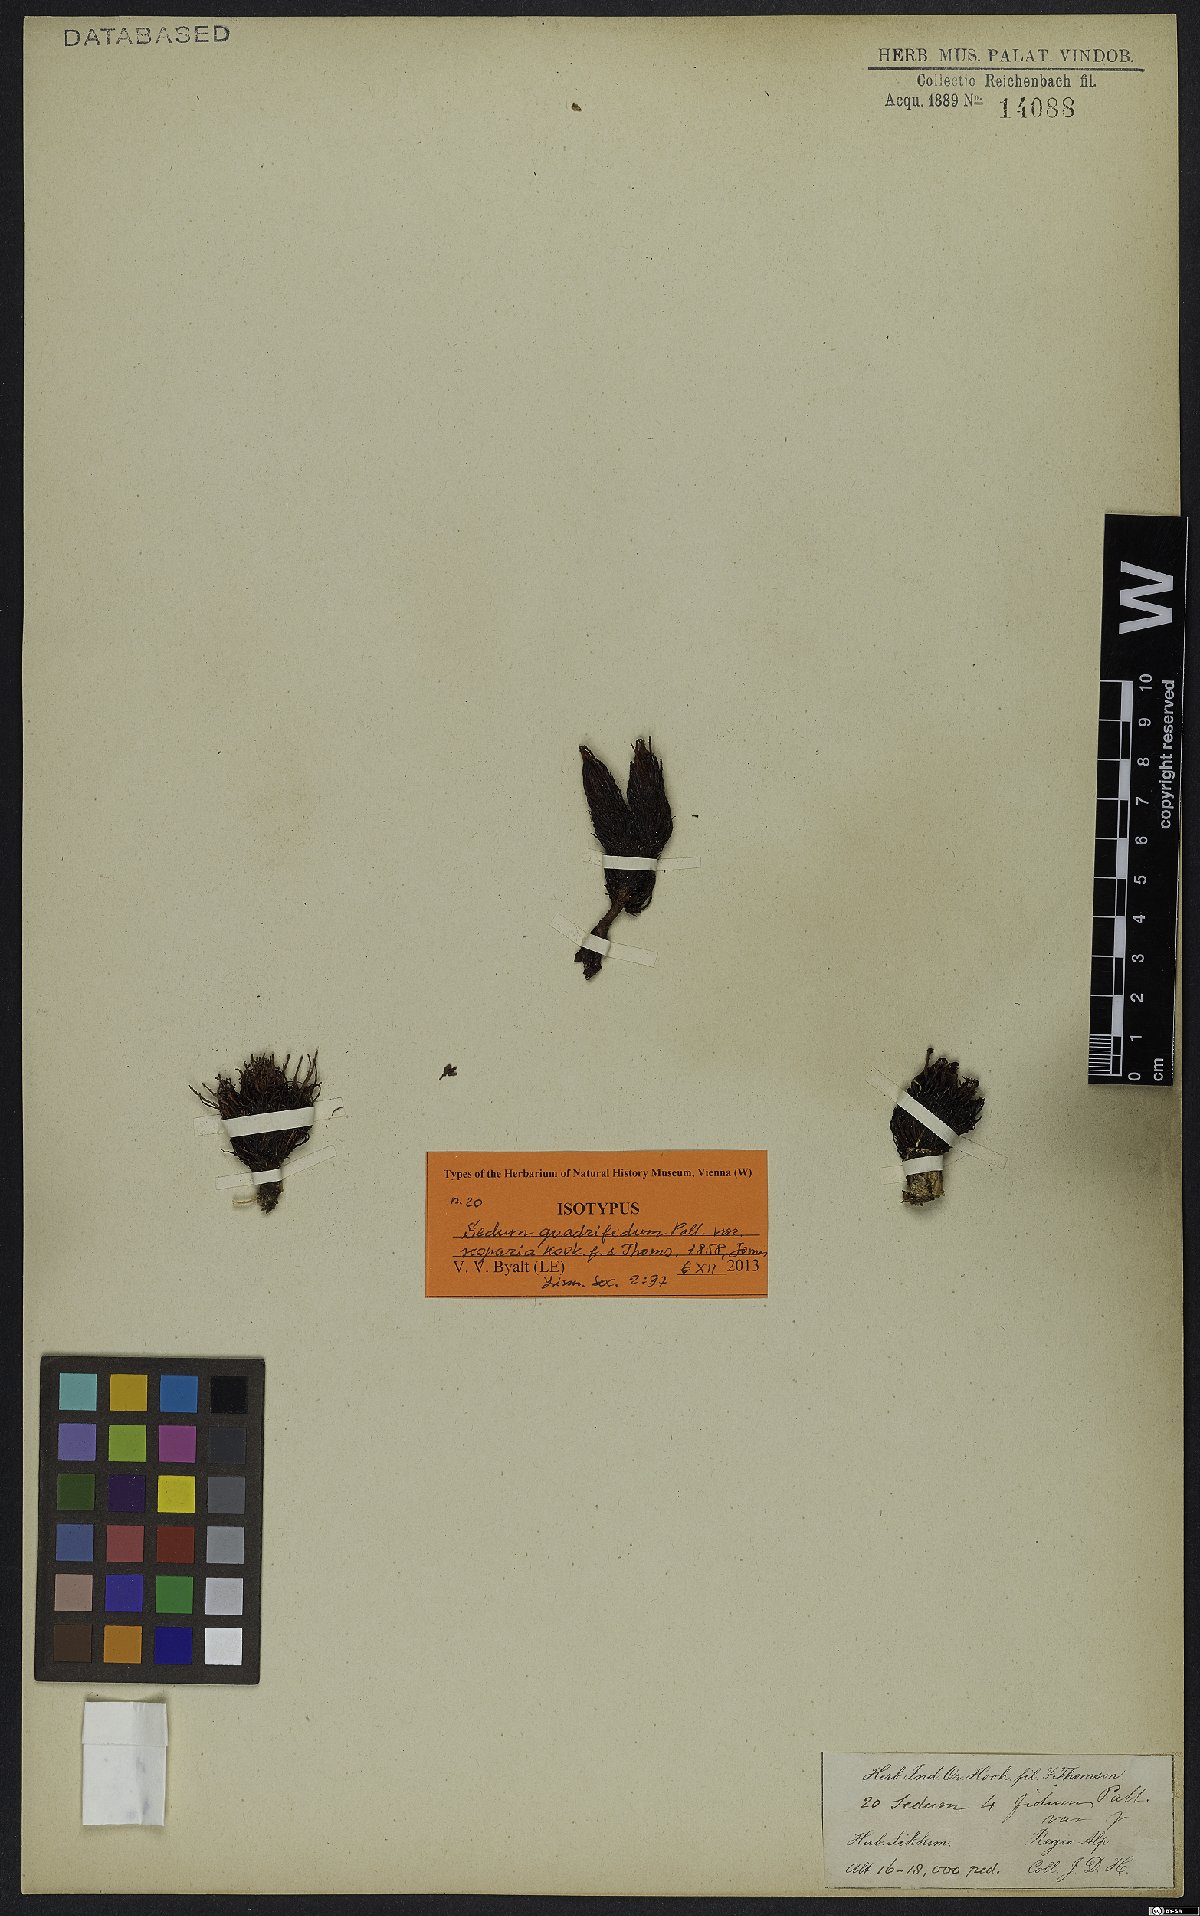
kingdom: Plantae
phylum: Tracheophyta
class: Magnoliopsida
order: Saxifragales
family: Crassulaceae
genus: Rhodiola
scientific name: Rhodiola quadrifida
